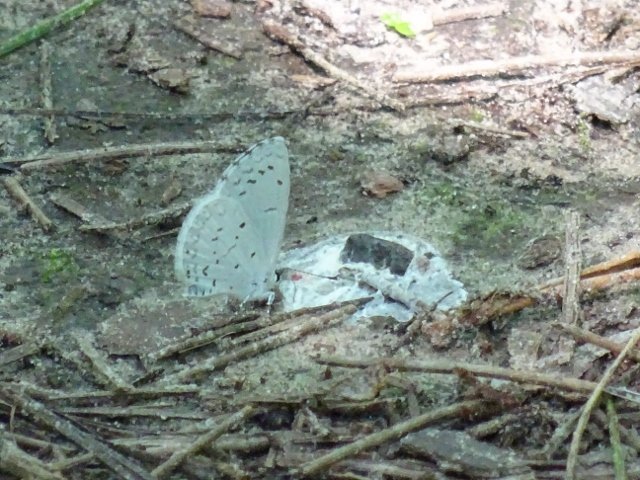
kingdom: Animalia
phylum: Arthropoda
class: Insecta
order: Lepidoptera
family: Lycaenidae
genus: Cyaniris
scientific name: Cyaniris neglecta
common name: Summer Azure
